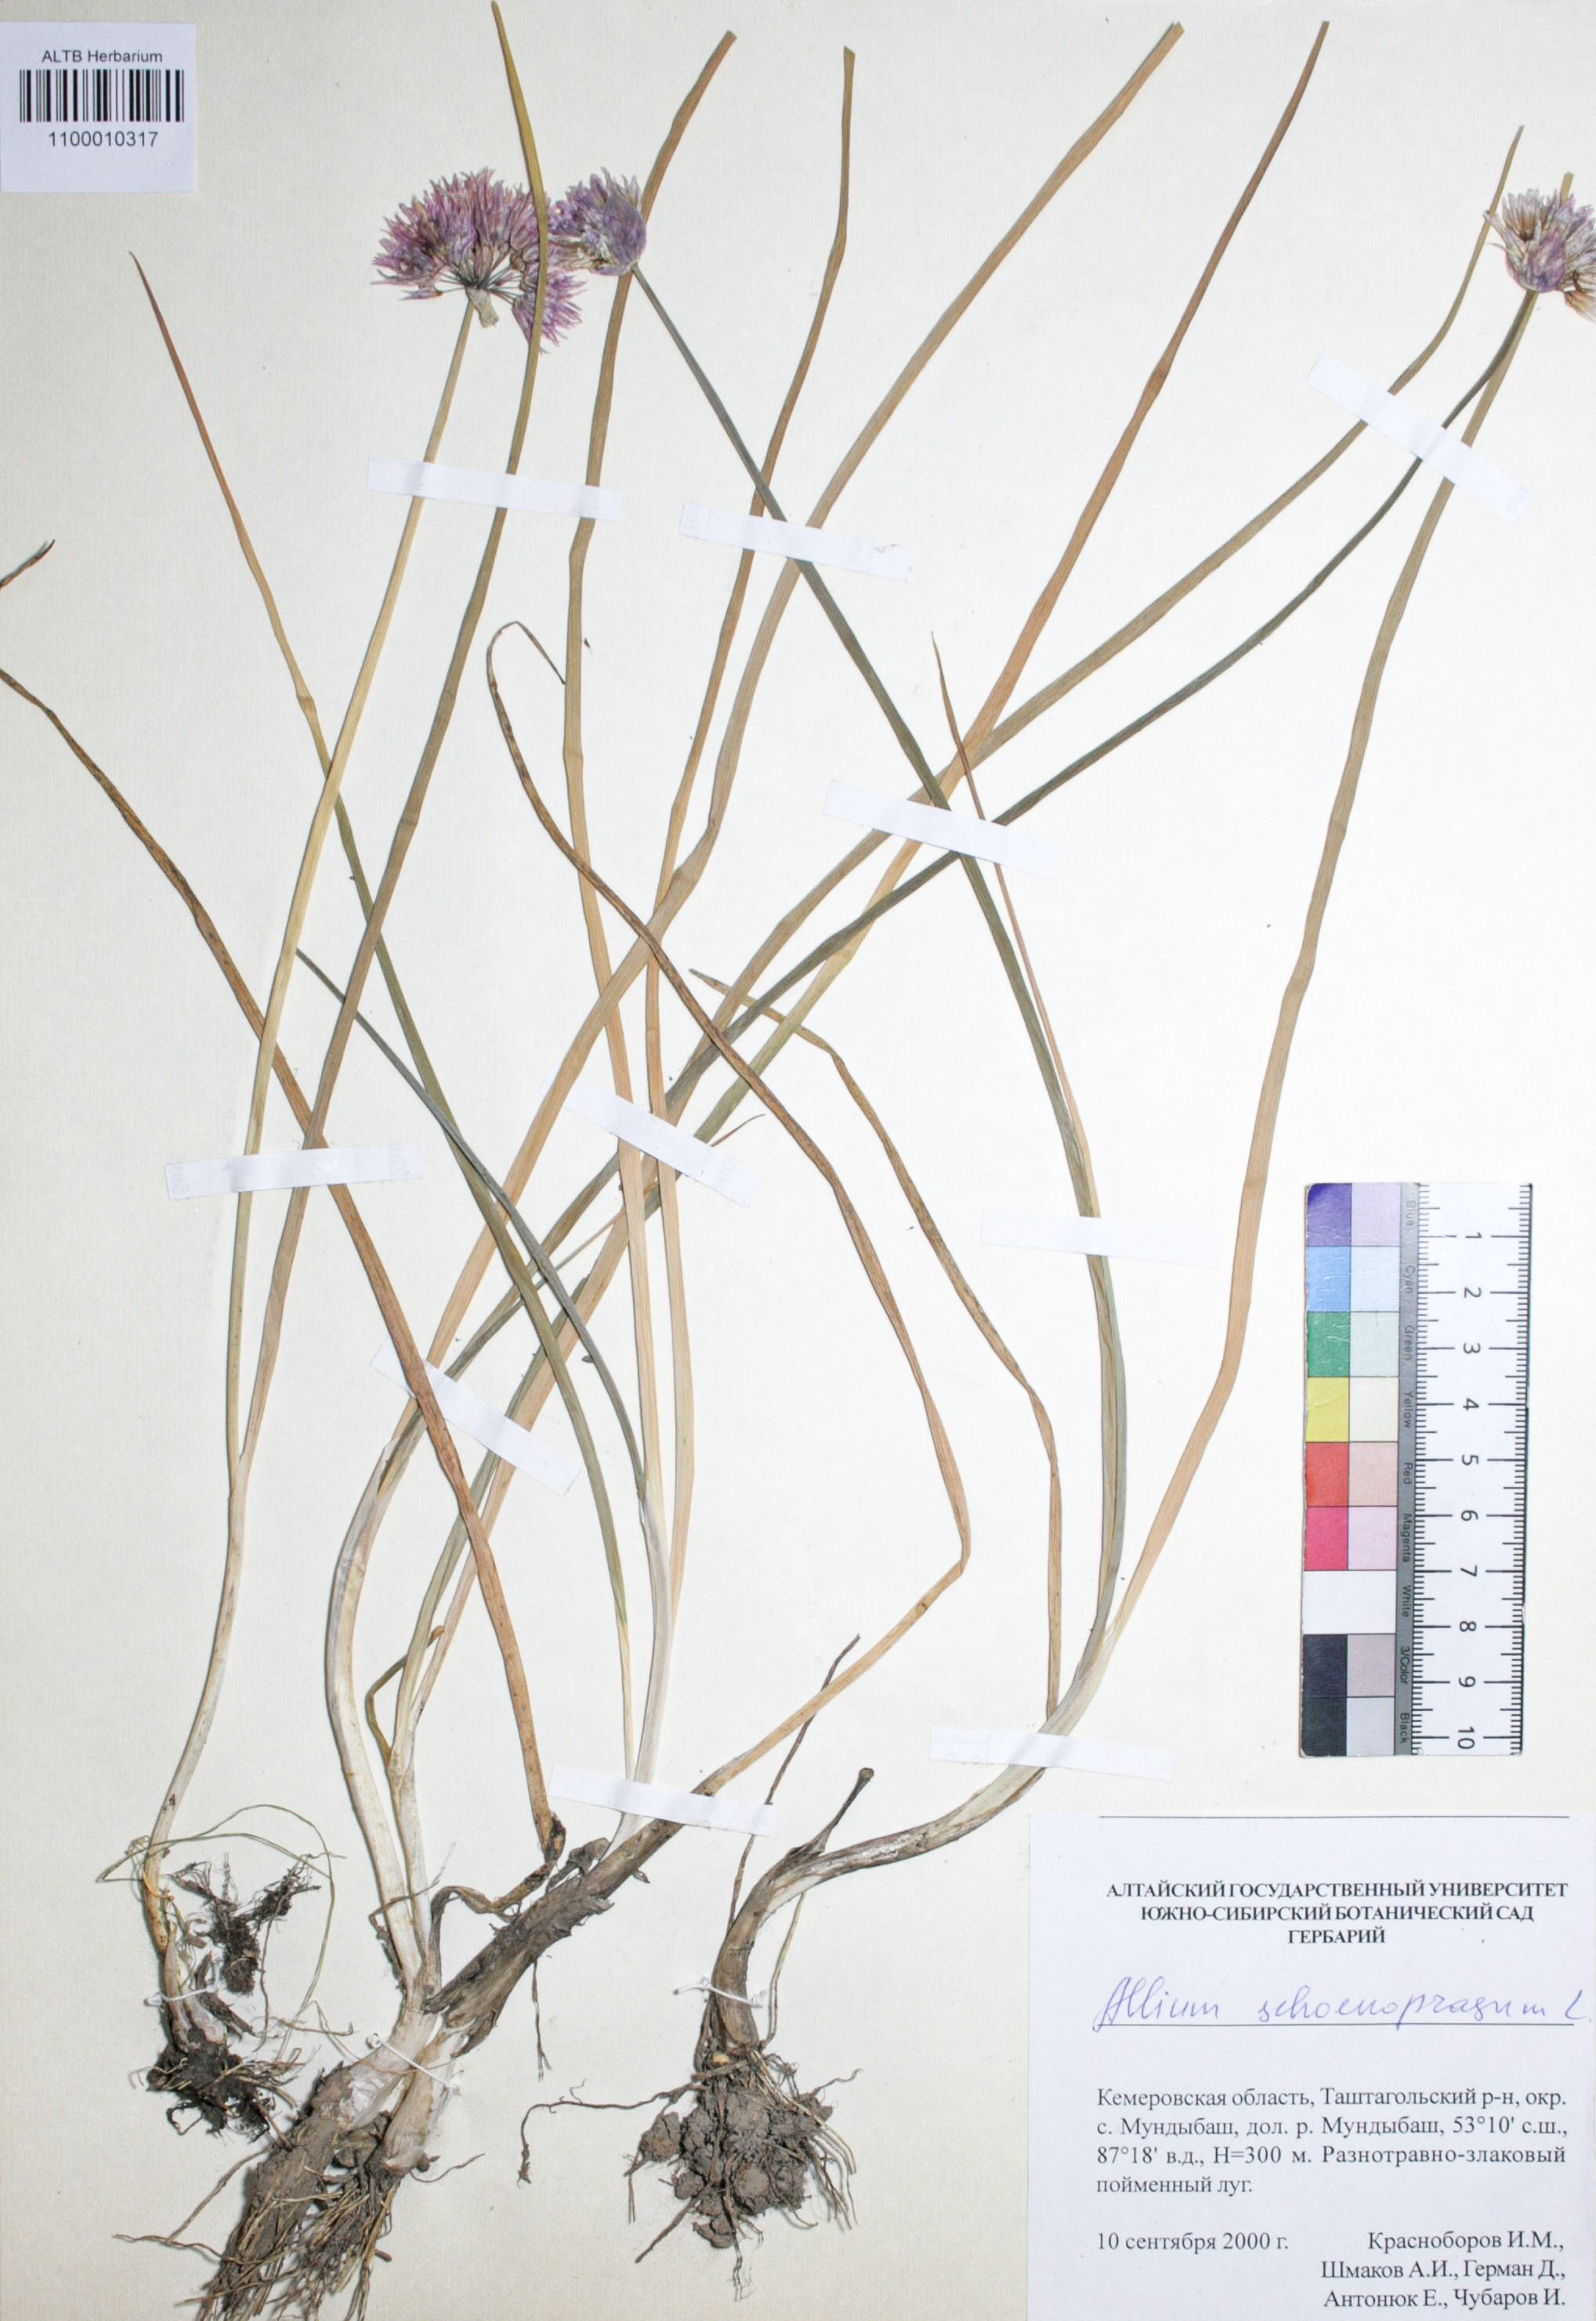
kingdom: Plantae
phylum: Tracheophyta
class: Liliopsida
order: Asparagales
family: Amaryllidaceae
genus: Allium
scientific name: Allium schoenoprasum
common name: Chives
